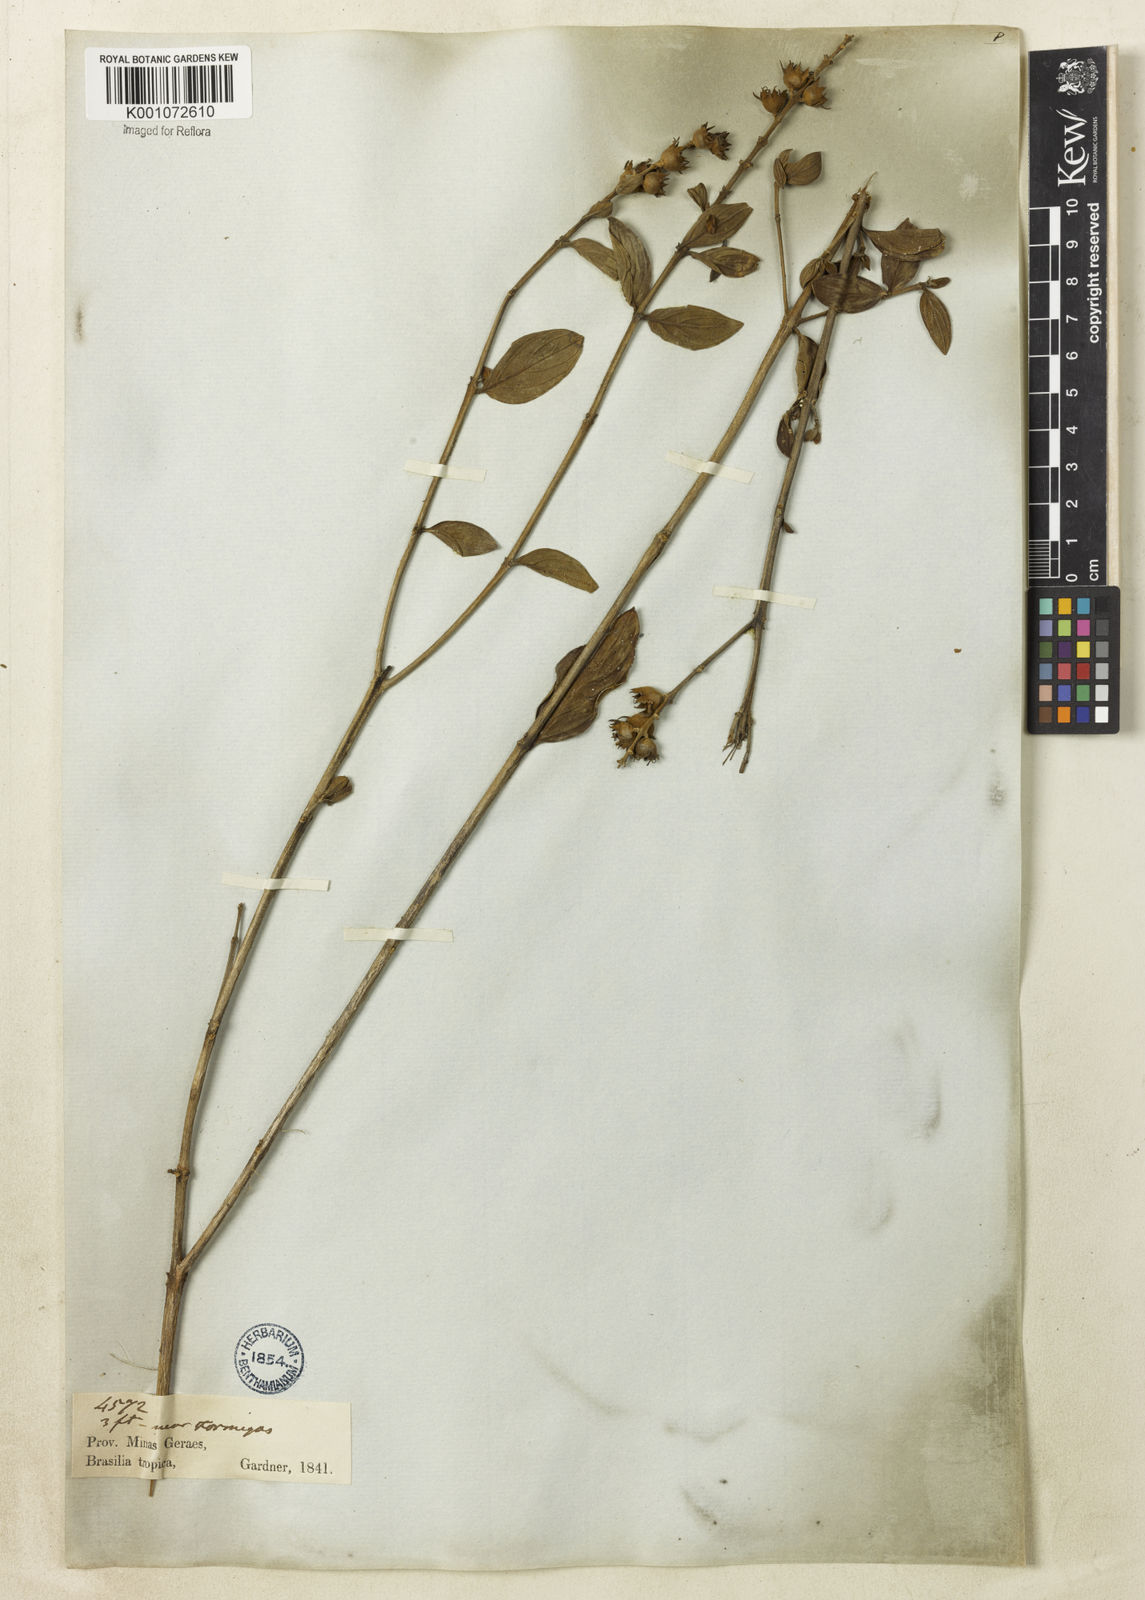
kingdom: Plantae
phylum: Tracheophyta
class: Magnoliopsida
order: Myrtales
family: Lythraceae
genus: Diplusodon
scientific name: Diplusodon lanceolatus
